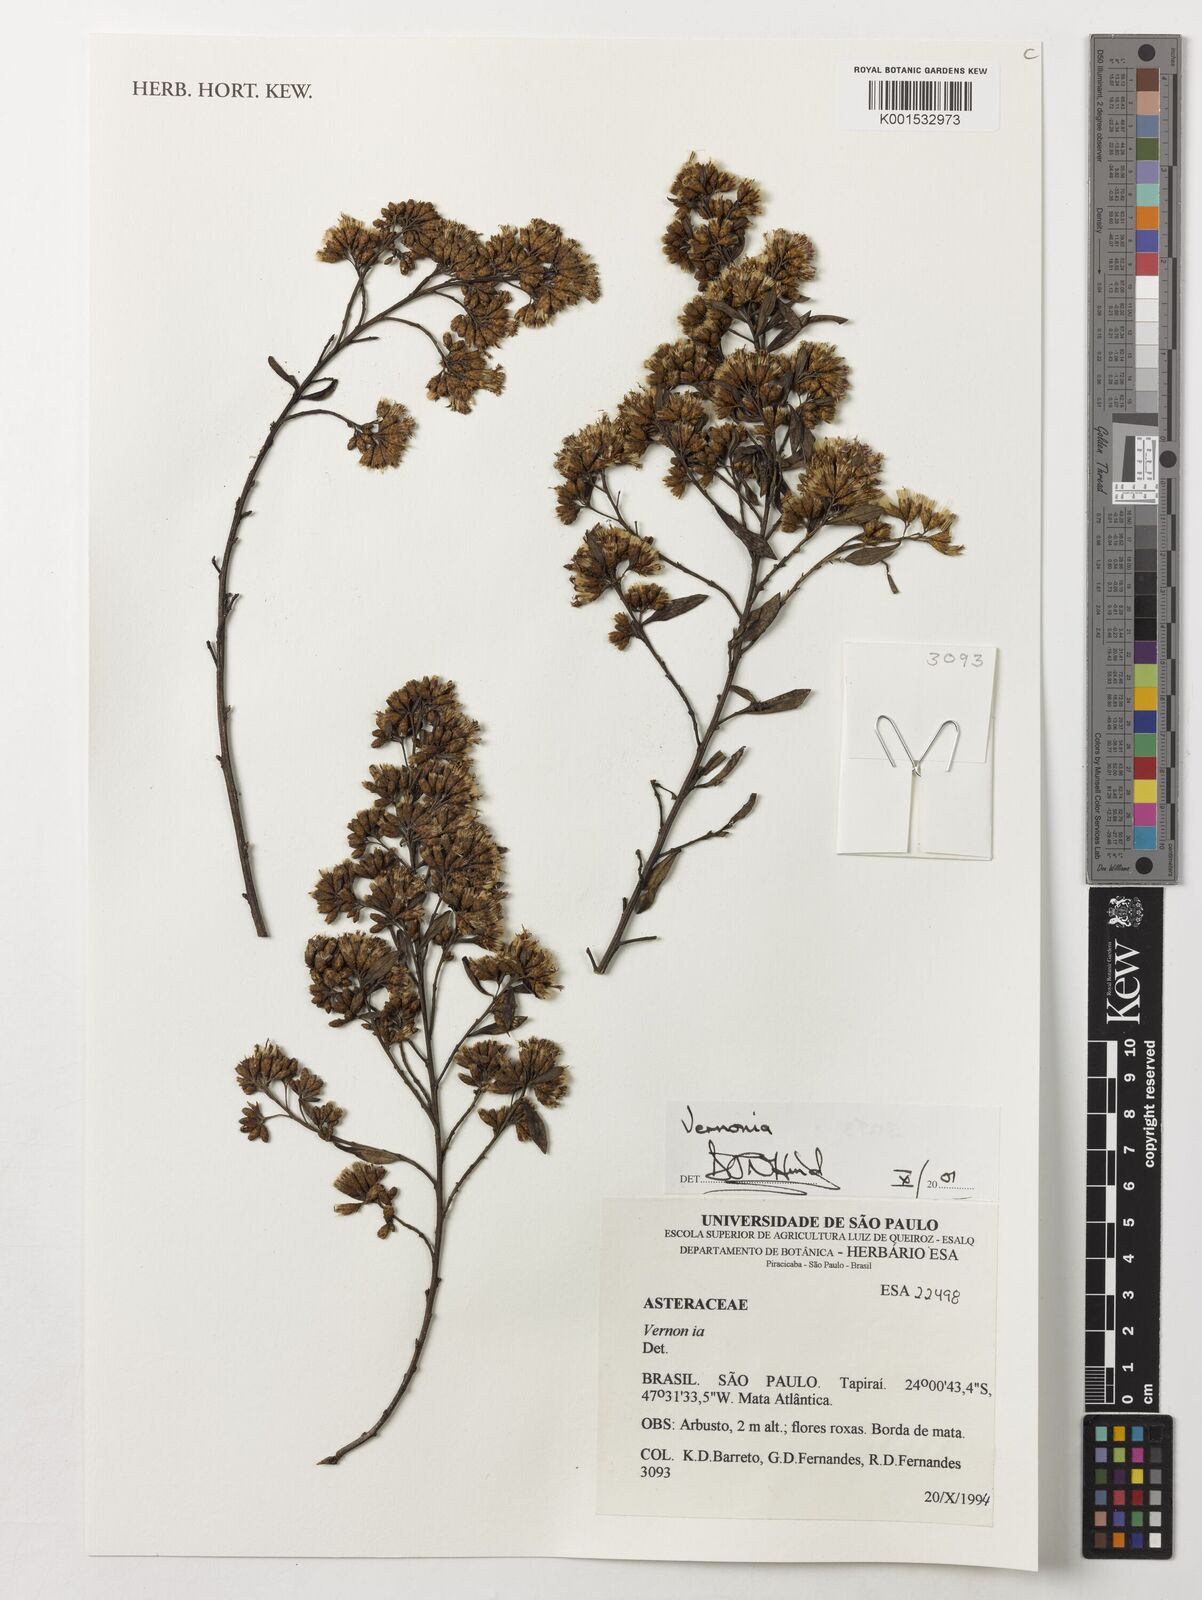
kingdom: Plantae
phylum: Tracheophyta
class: Magnoliopsida
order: Asterales
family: Asteraceae
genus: Vernonia
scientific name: Vernonia
